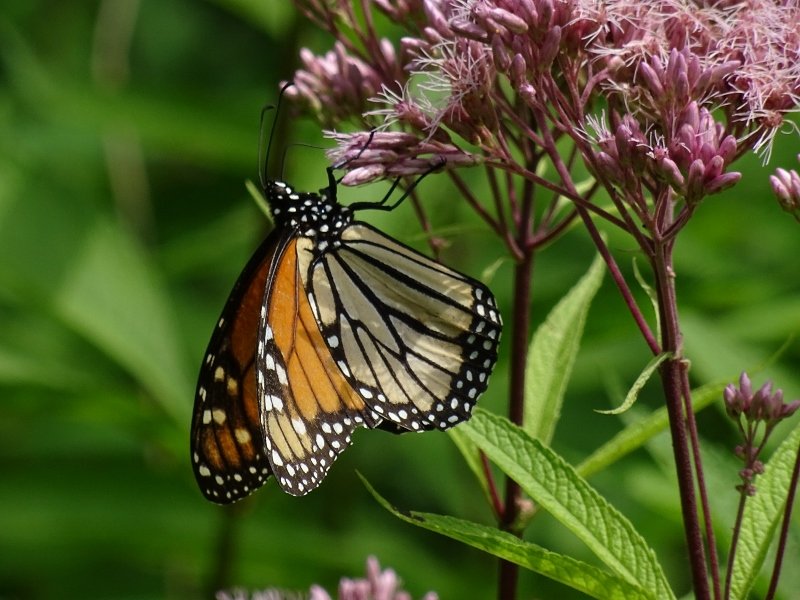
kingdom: Animalia
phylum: Arthropoda
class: Insecta
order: Lepidoptera
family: Nymphalidae
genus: Danaus
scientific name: Danaus plexippus
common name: Monarch
